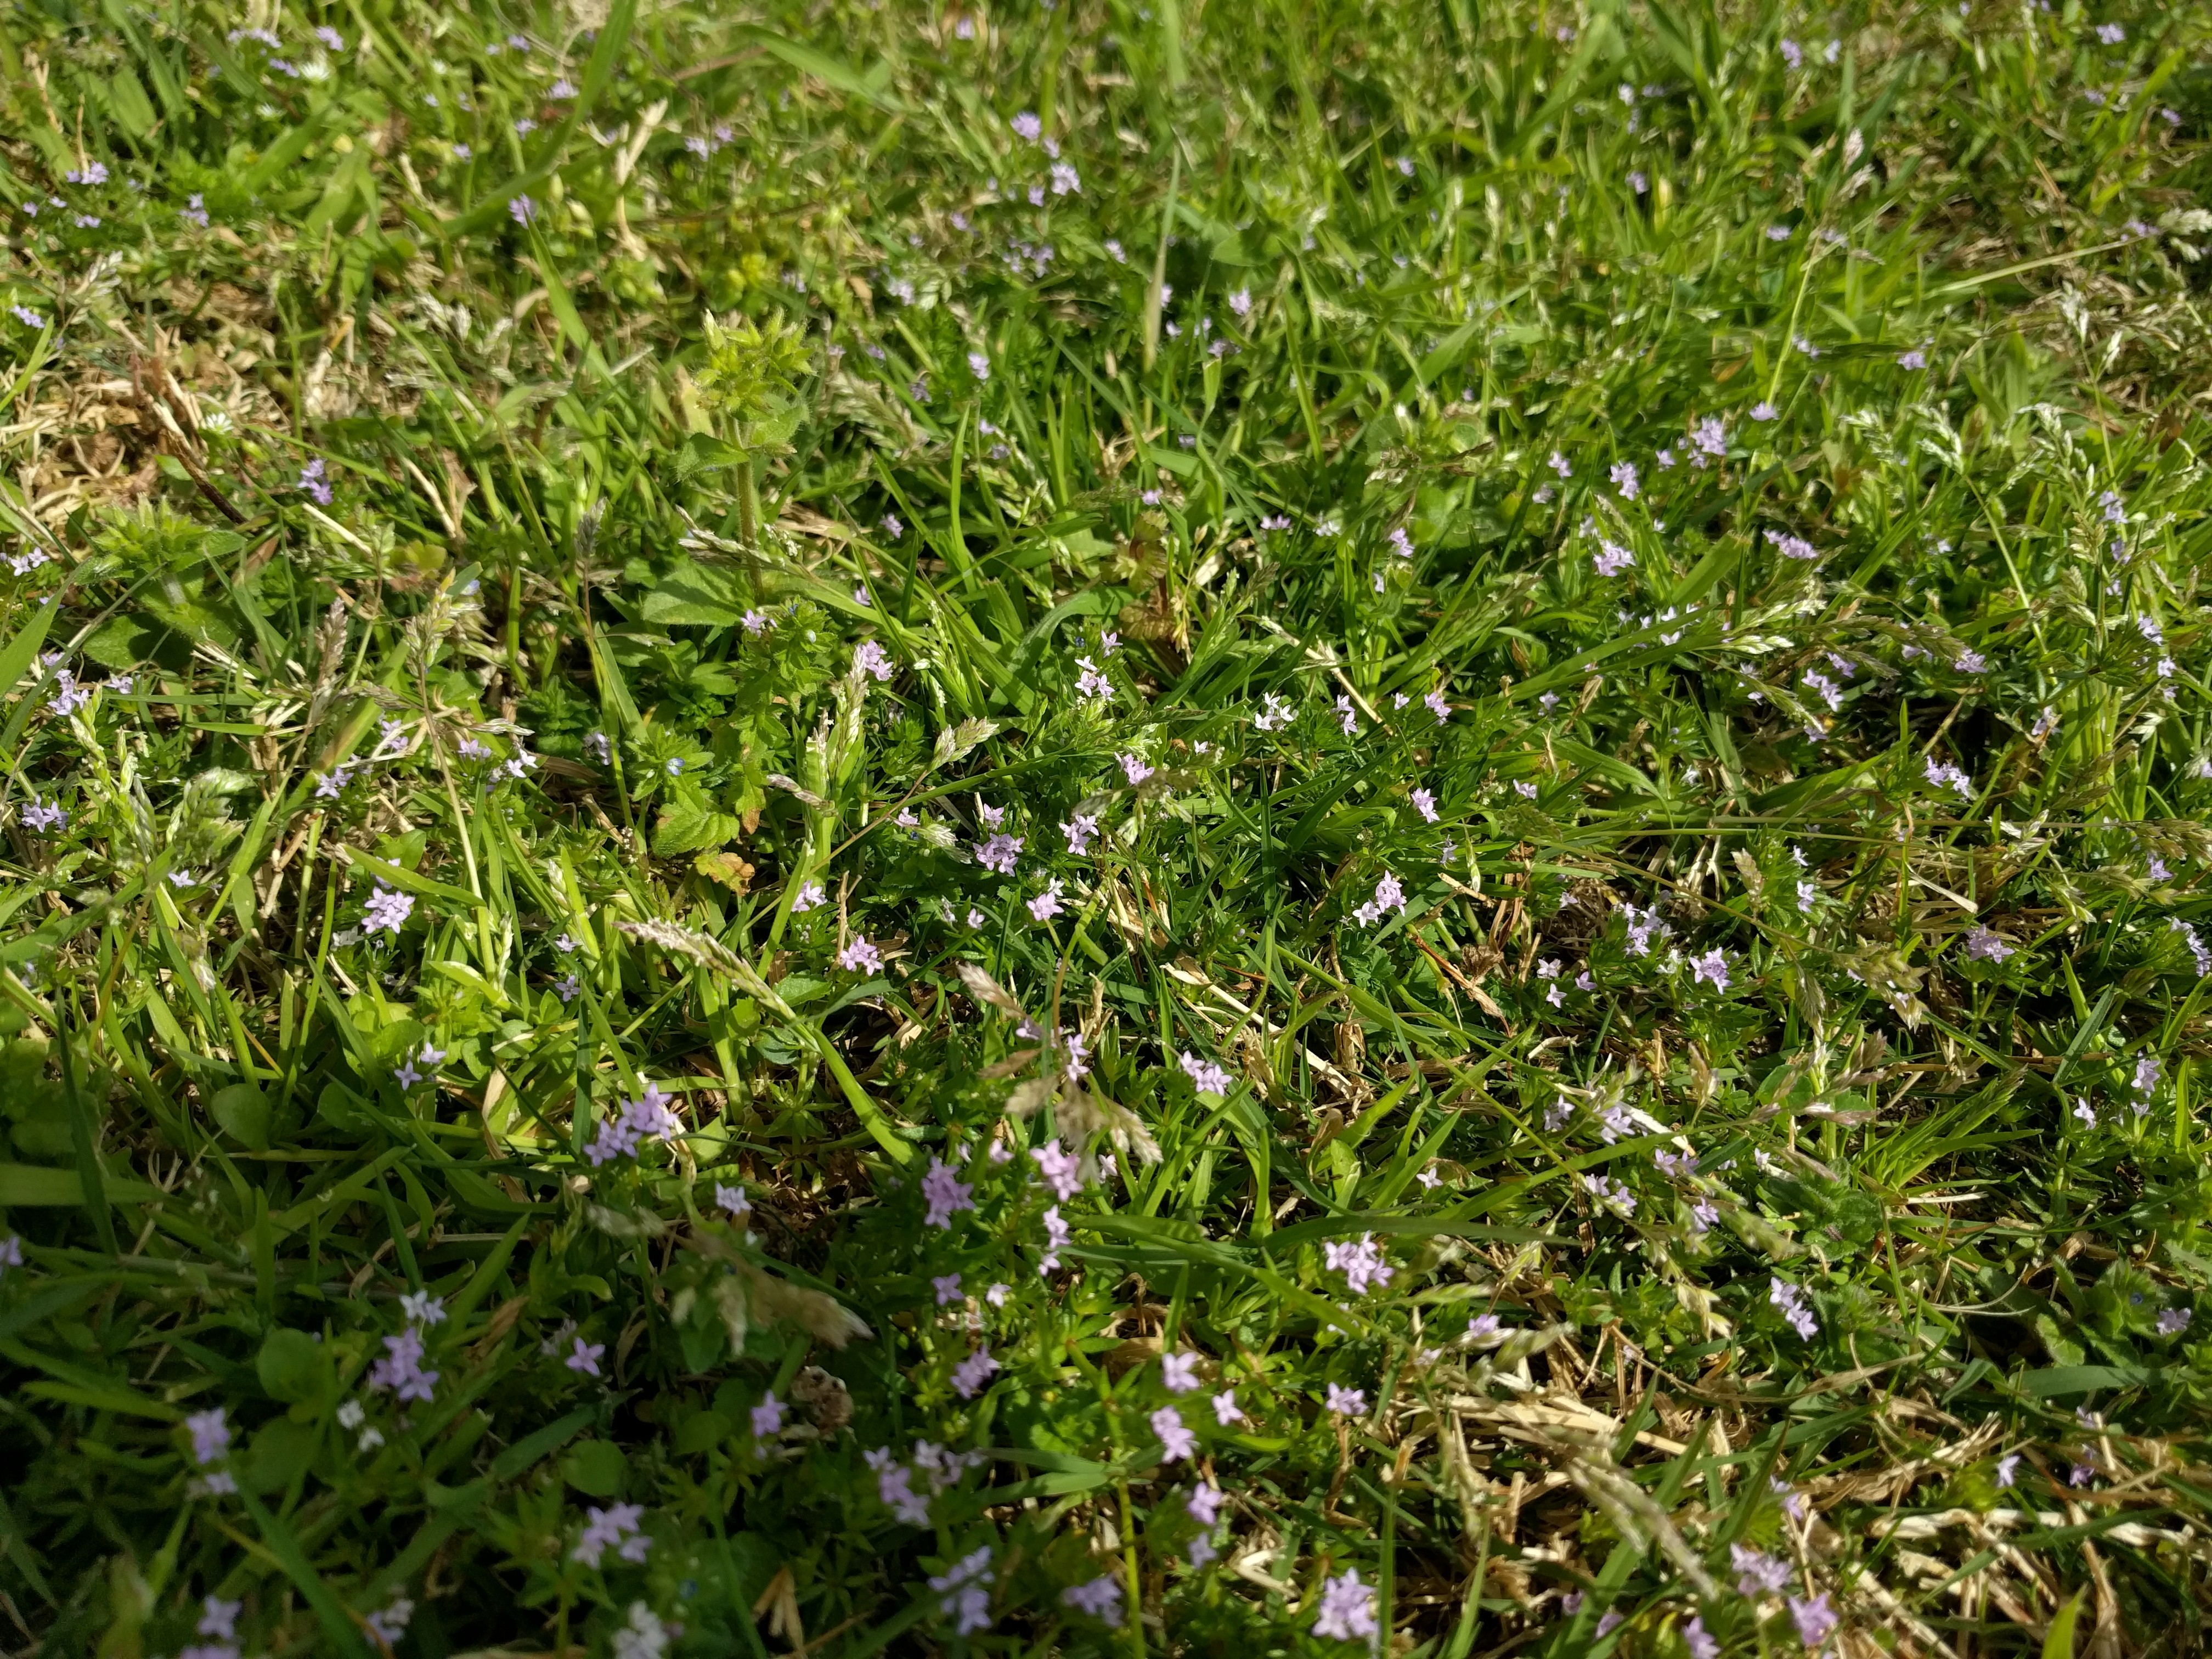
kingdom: Plantae
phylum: Tracheophyta
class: Magnoliopsida
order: Gentianales
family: Rubiaceae
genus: Sherardia
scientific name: Sherardia arvensis
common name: Field madder
